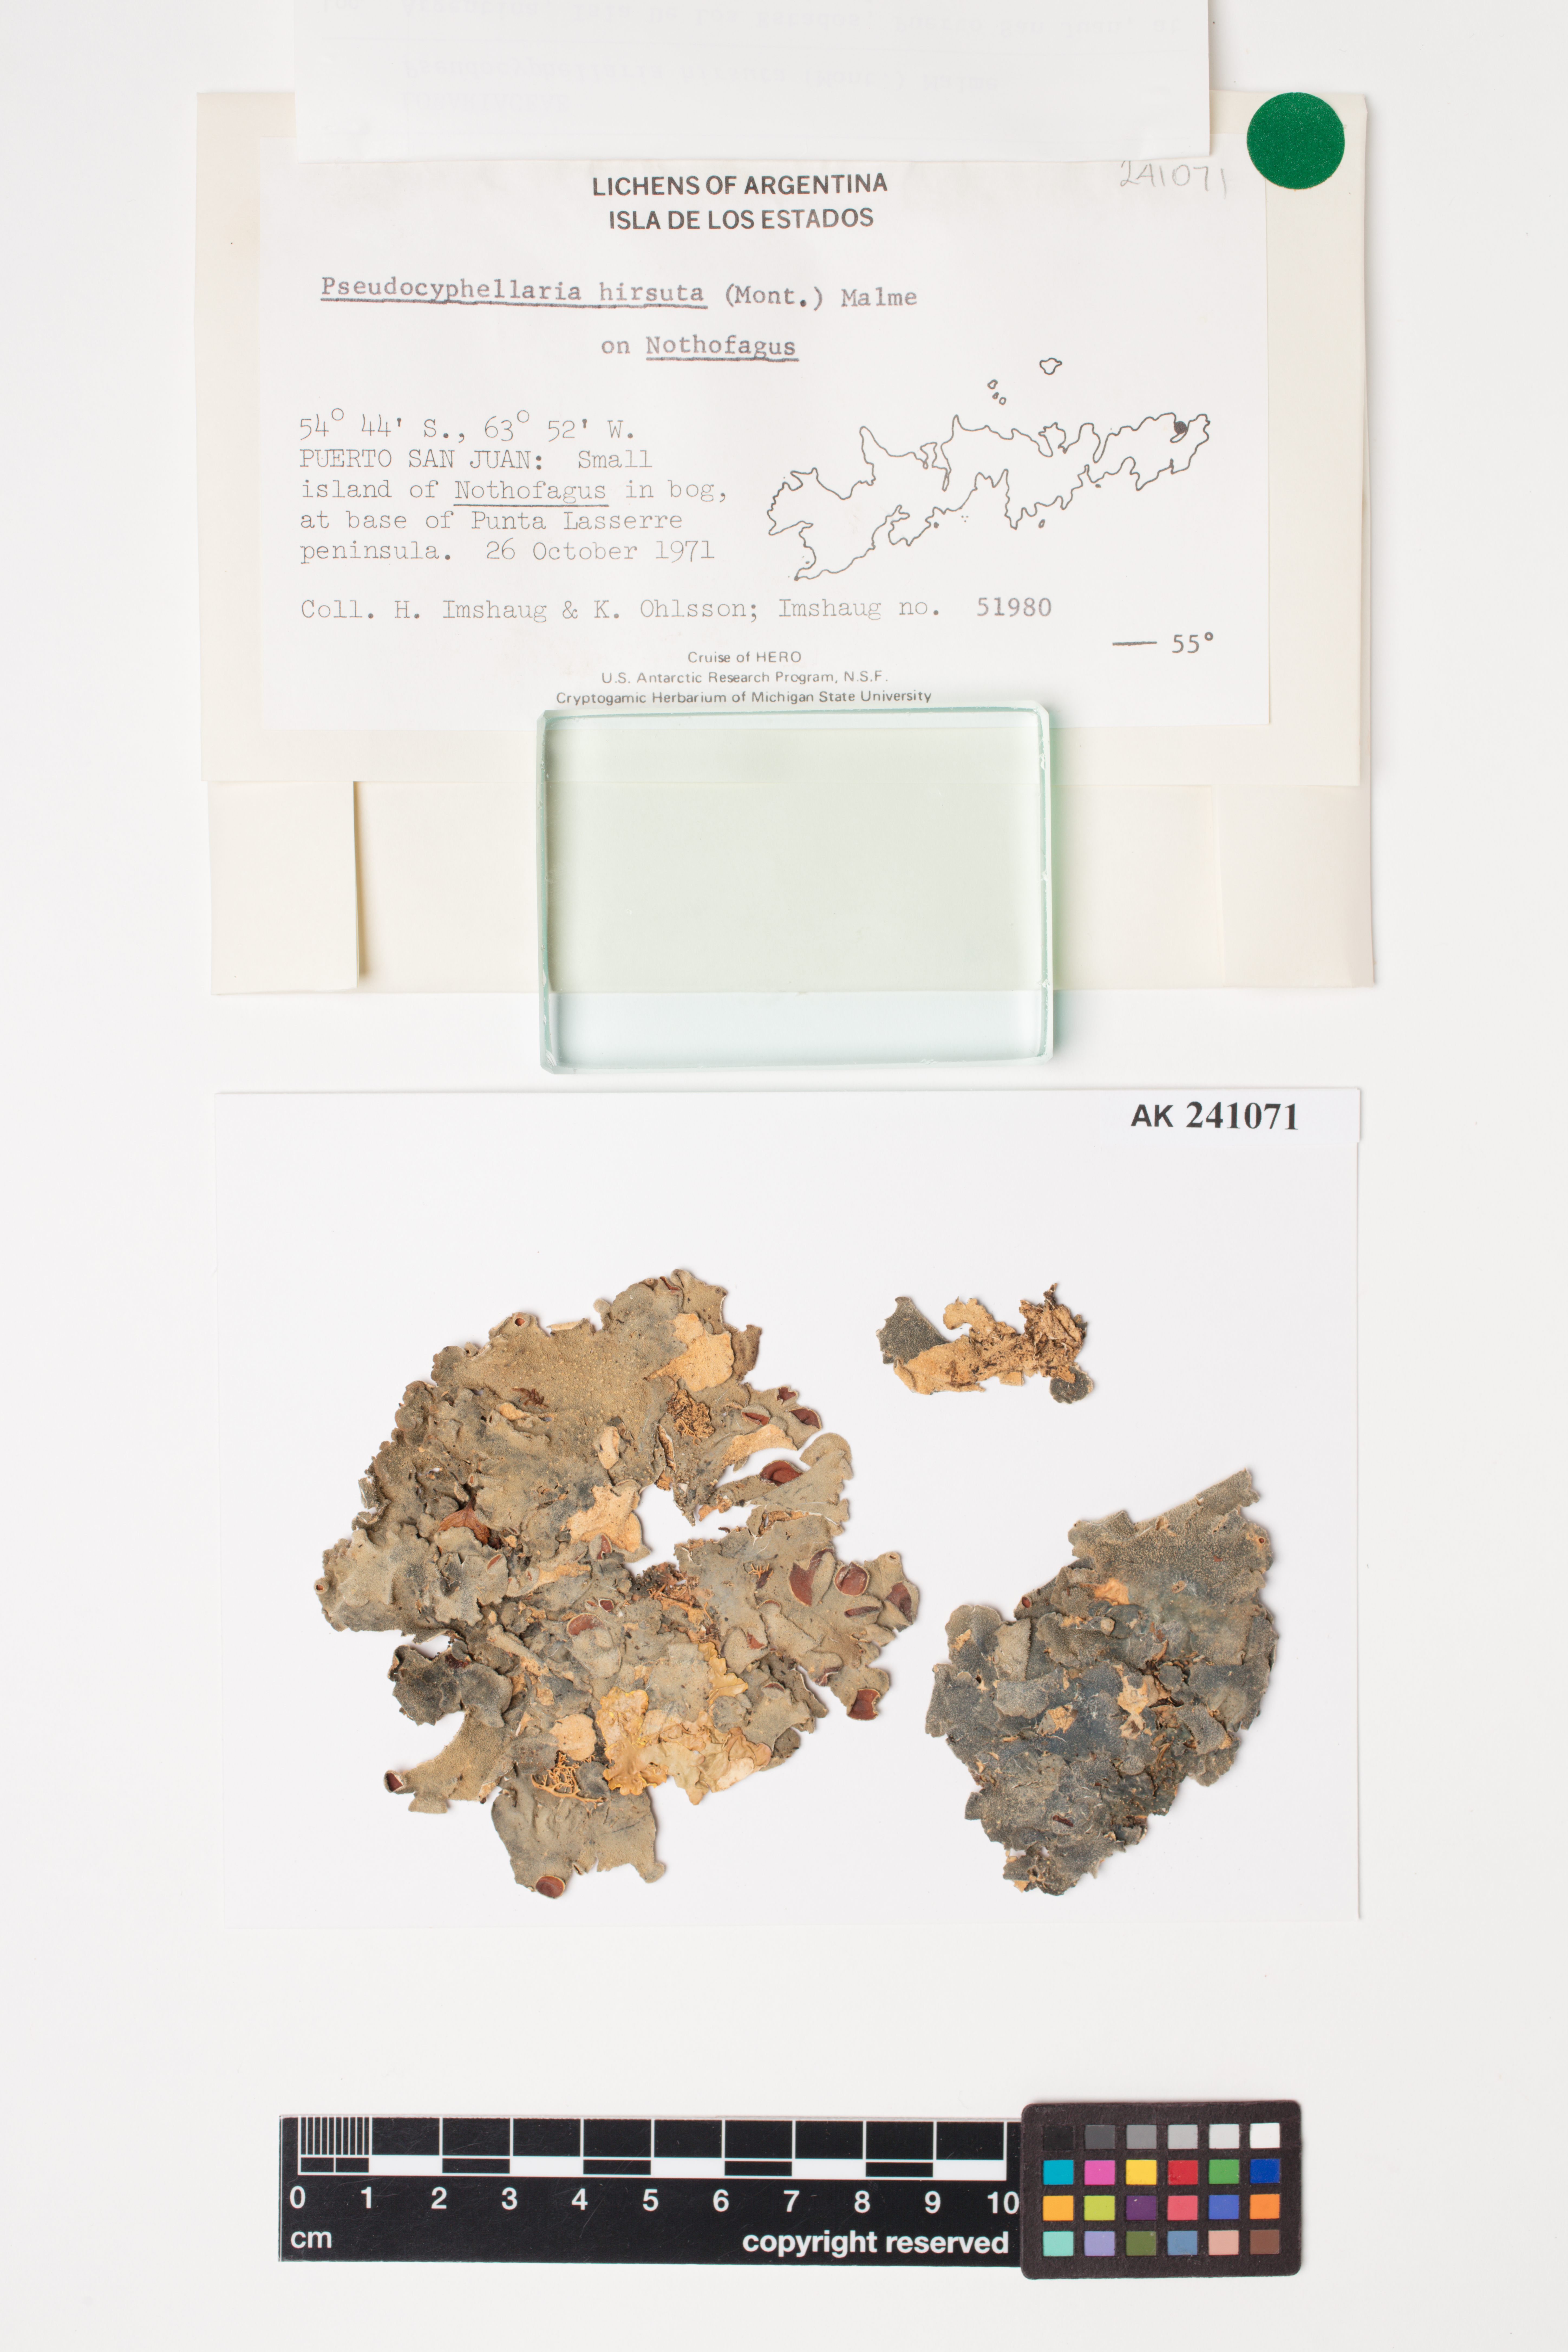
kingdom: Fungi
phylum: Ascomycota
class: Lecanoromycetes
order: Peltigerales
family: Lobariaceae
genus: Pseudocyphellaria
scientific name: Pseudocyphellaria hirsuta
